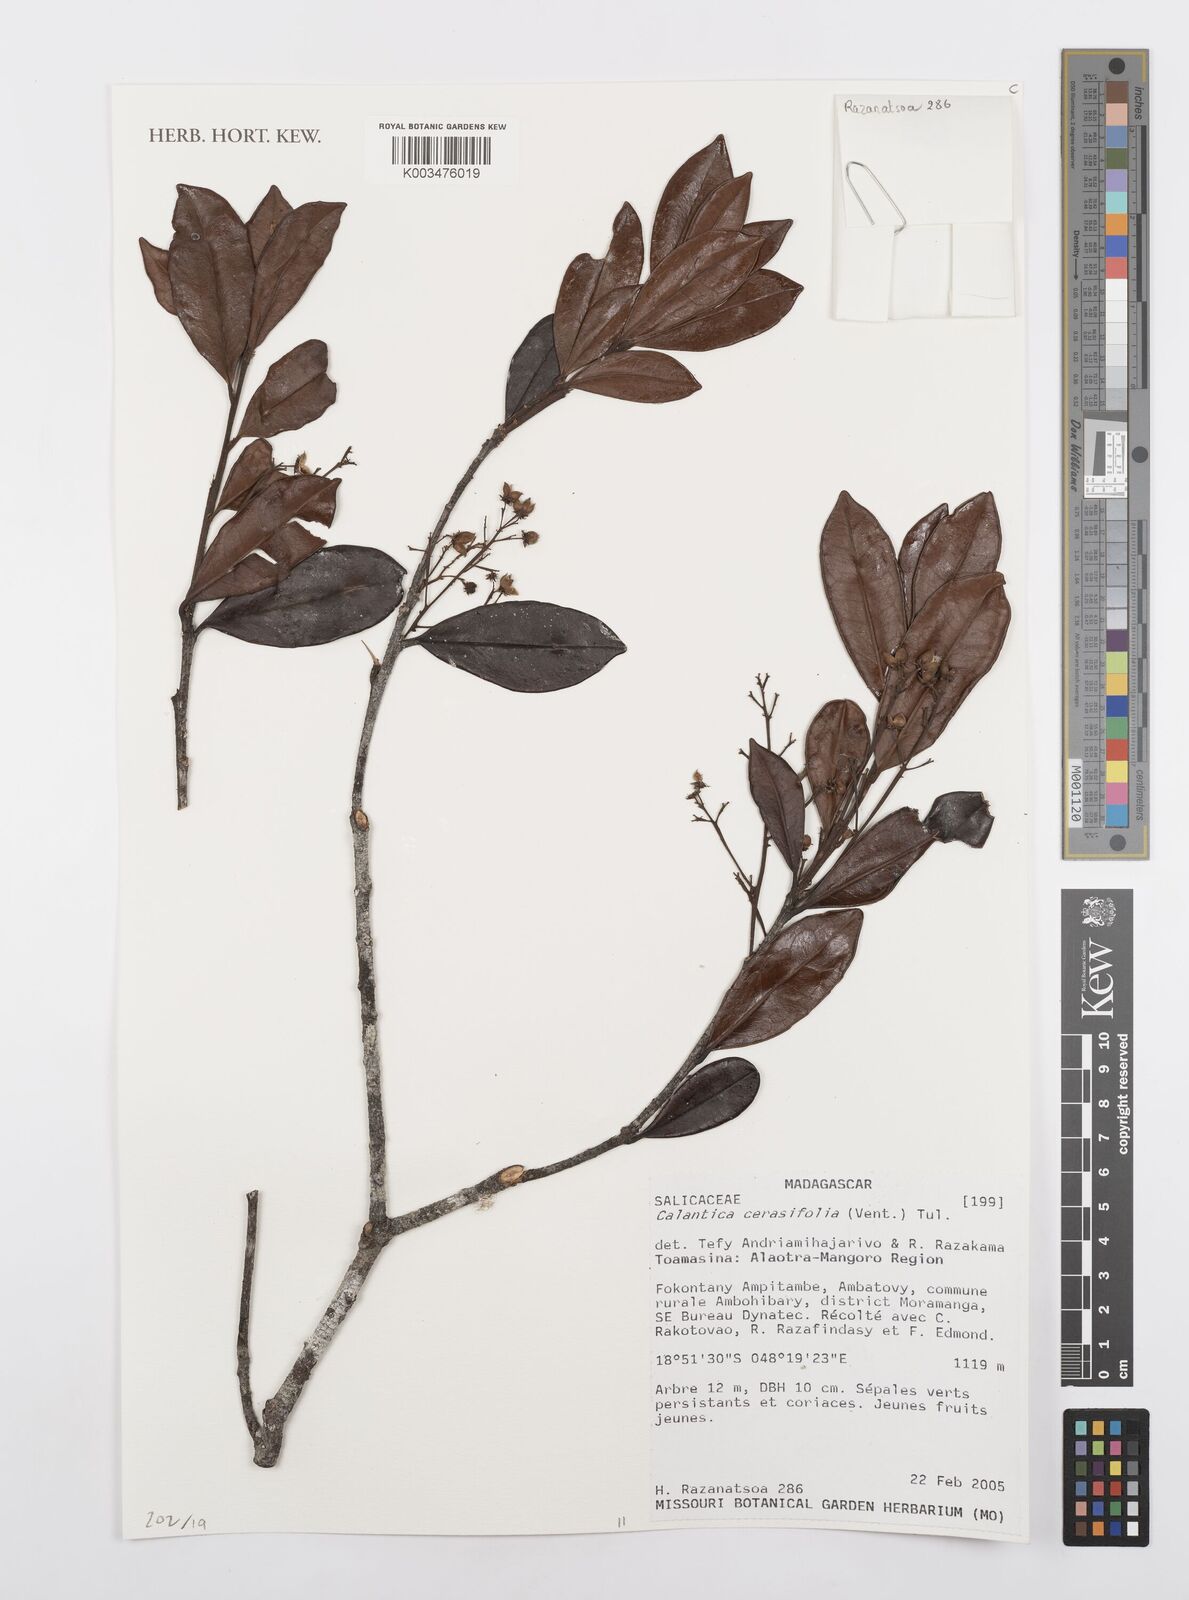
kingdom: Plantae
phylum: Tracheophyta
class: Magnoliopsida
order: Malpighiales
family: Salicaceae
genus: Calantica
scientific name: Calantica cerasifolia
